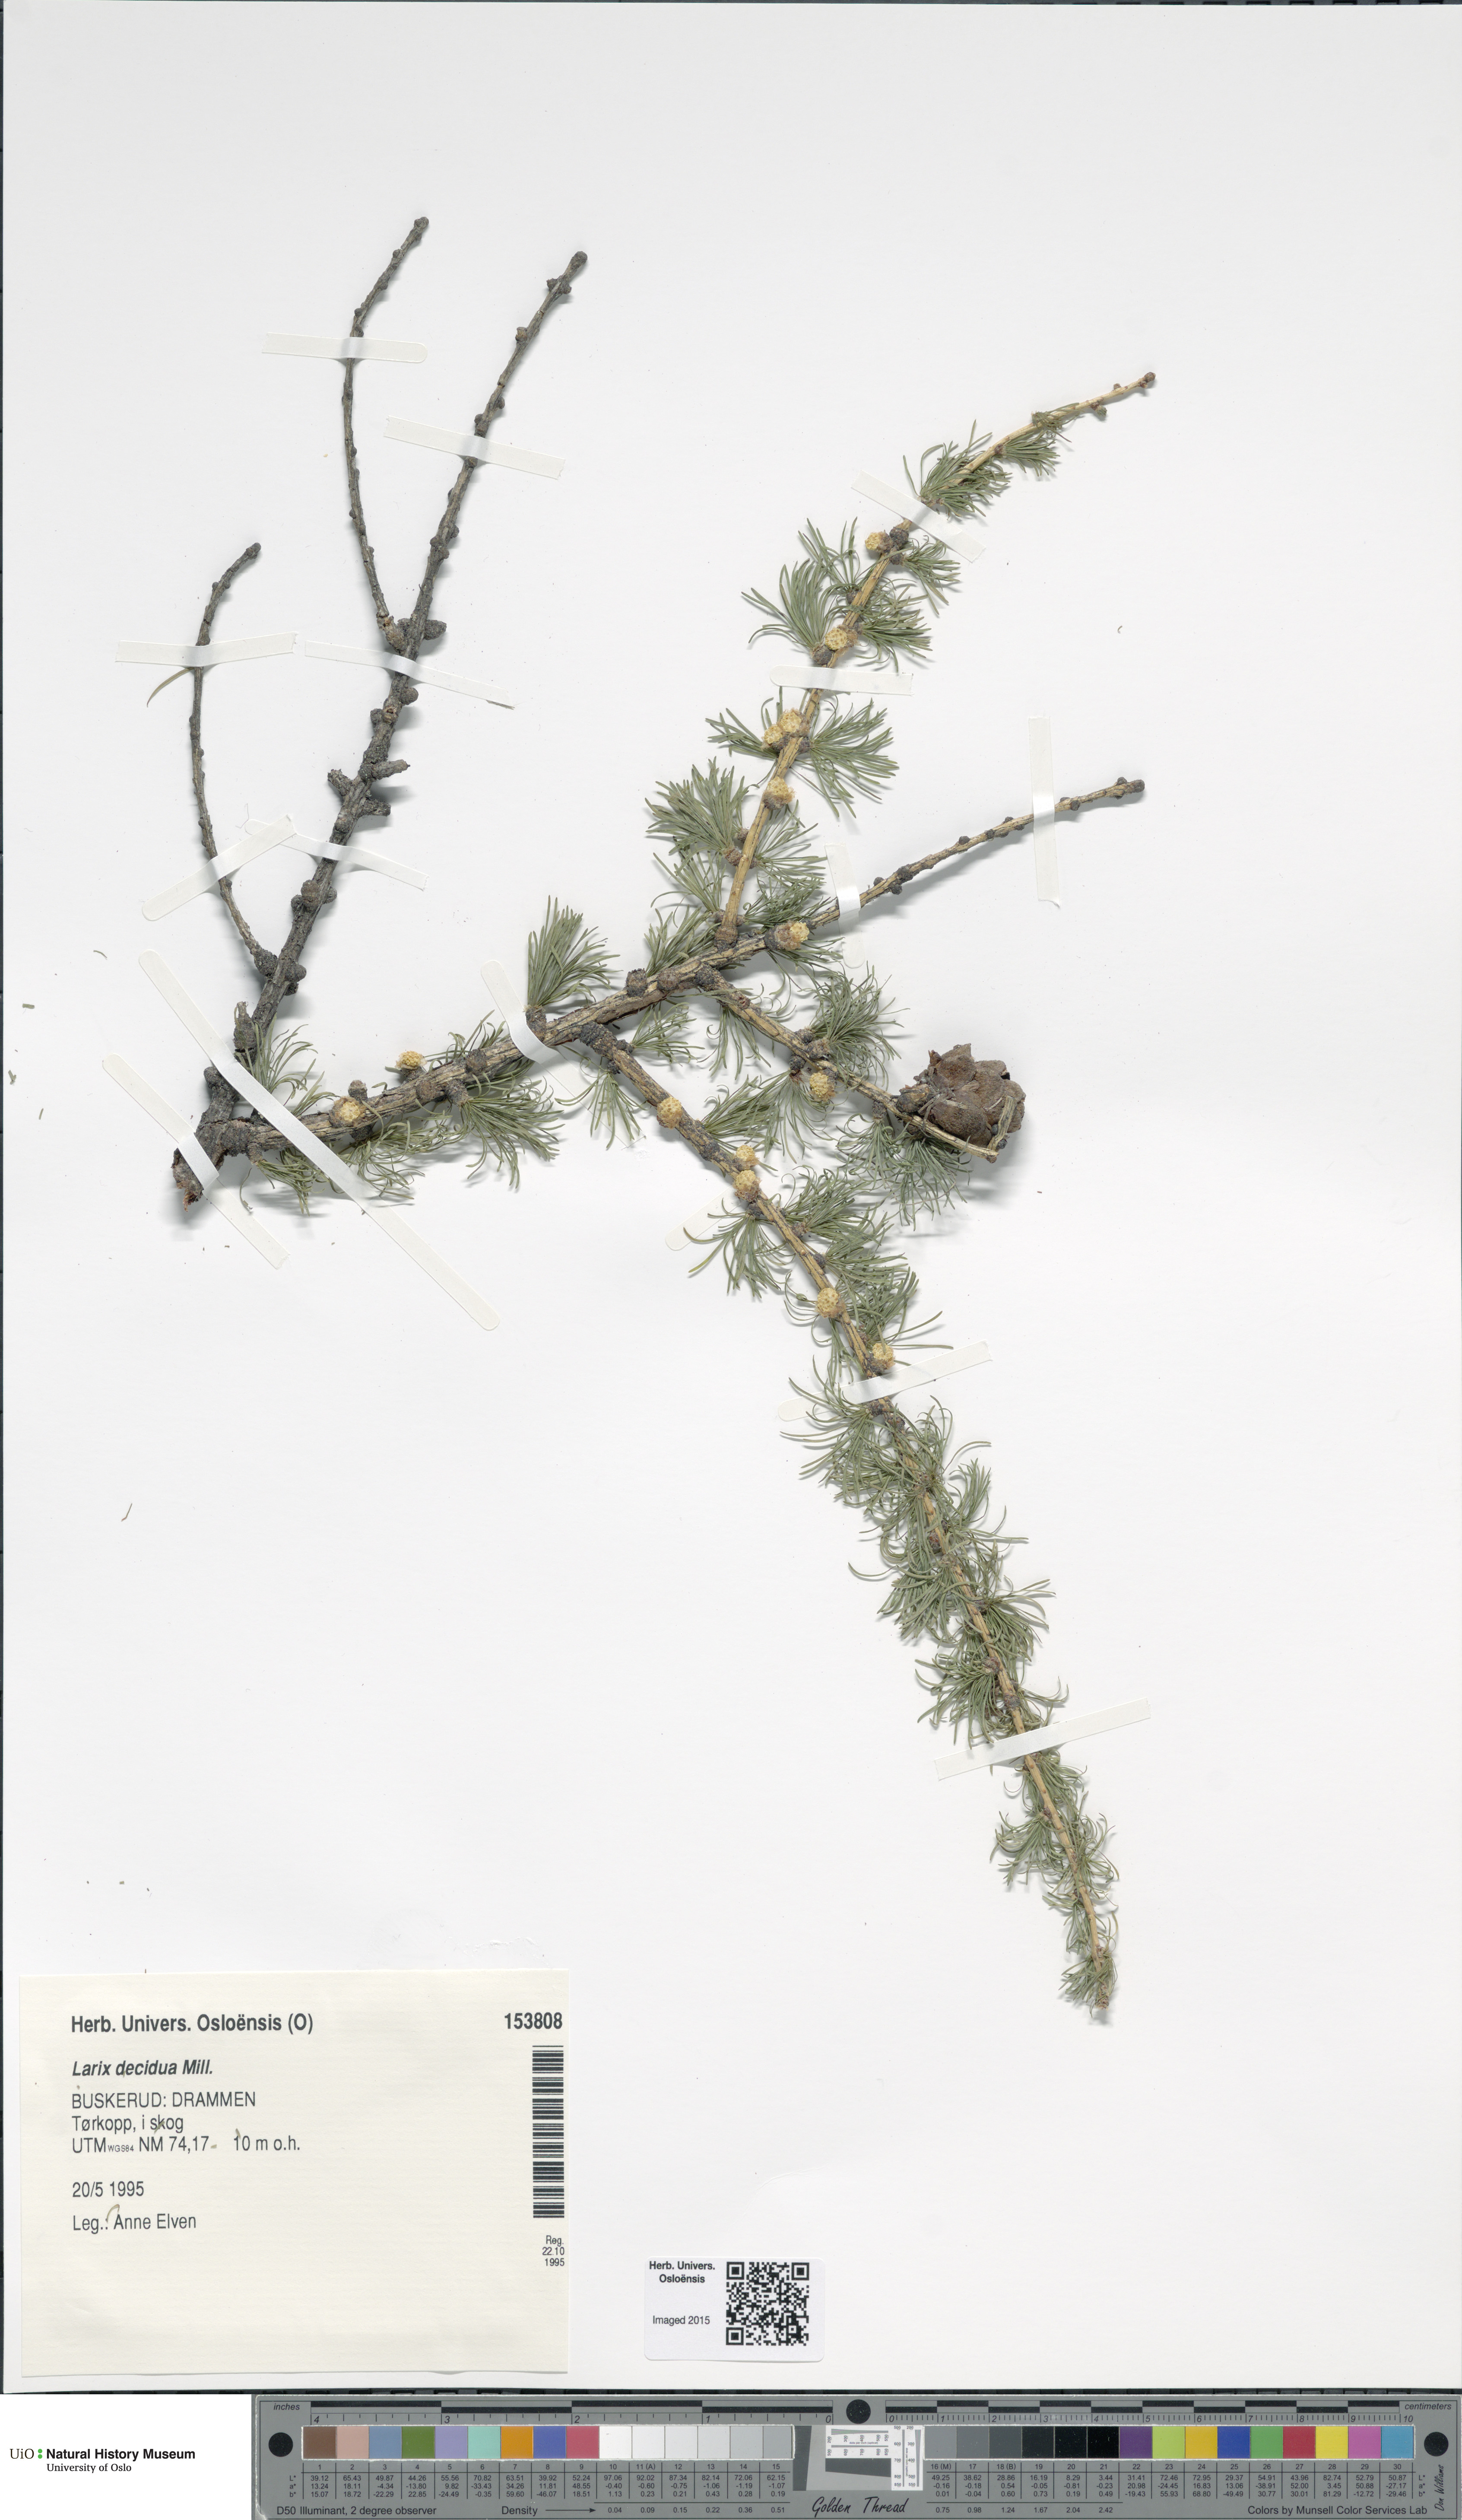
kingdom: Plantae
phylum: Tracheophyta
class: Pinopsida
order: Pinales
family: Pinaceae
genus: Larix
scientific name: Larix decidua
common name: European larch
